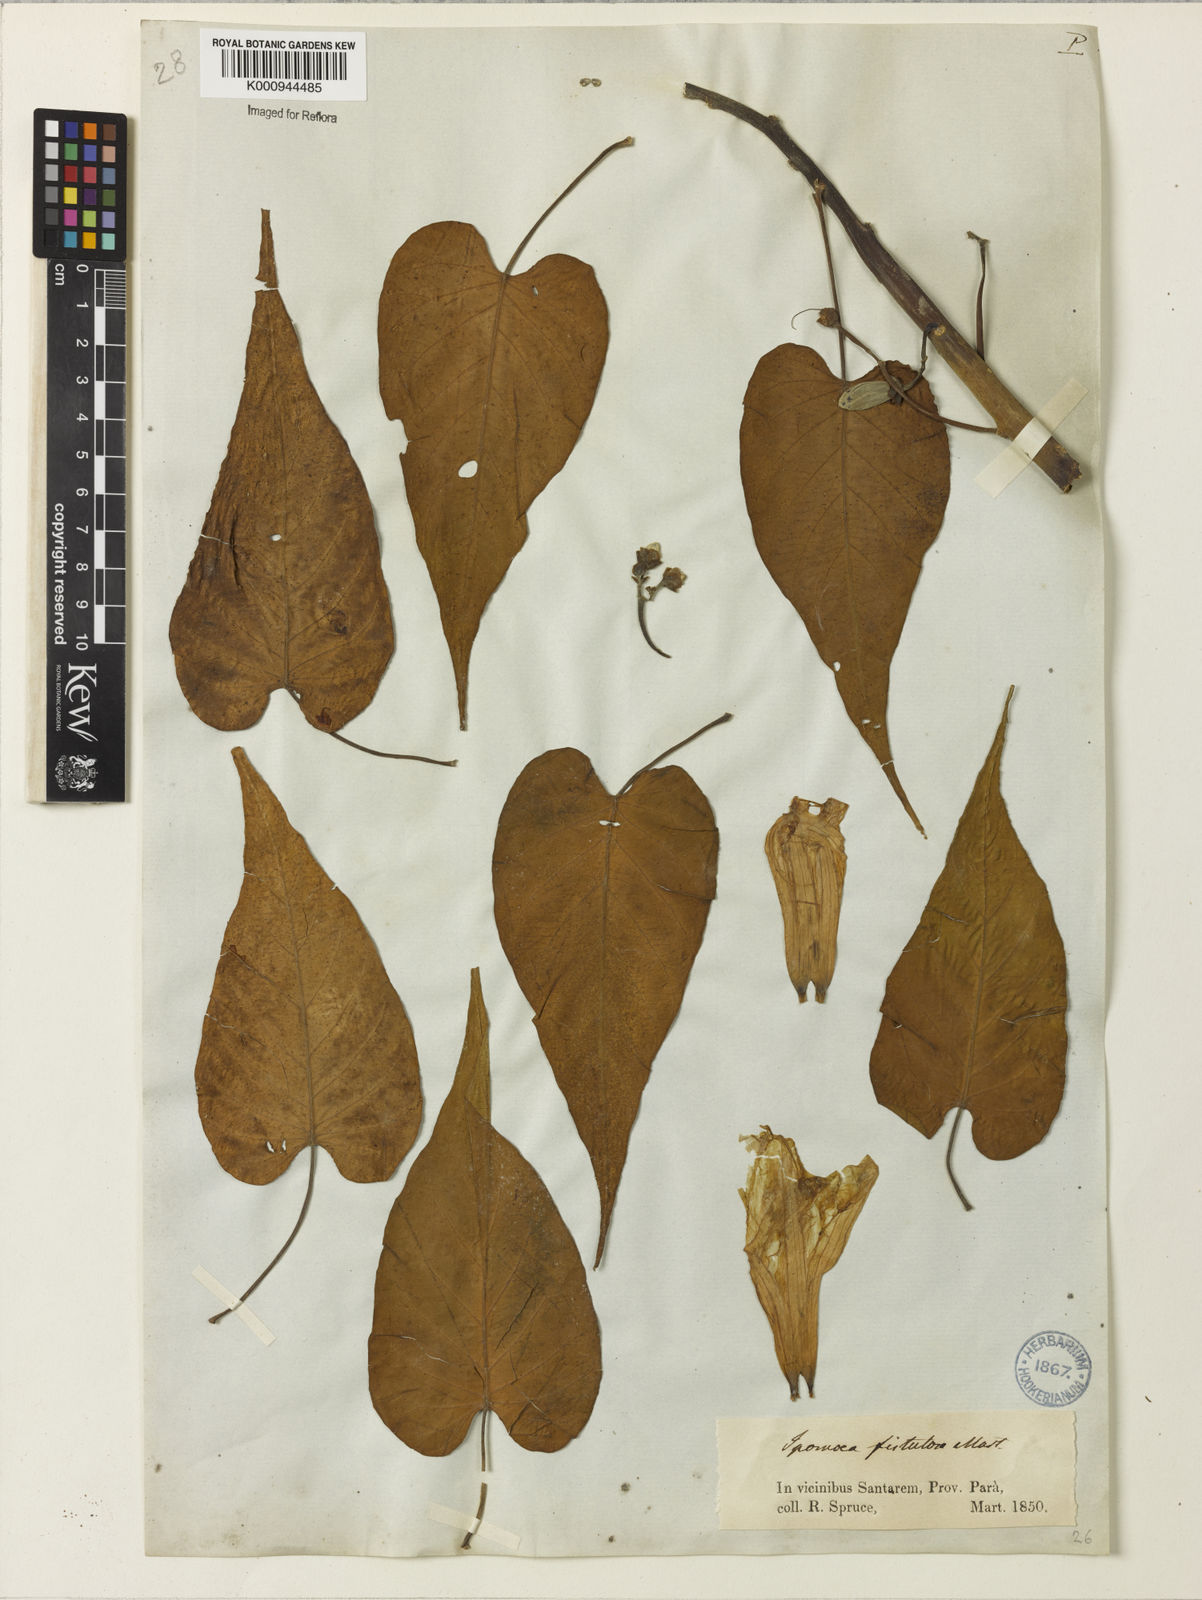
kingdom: Plantae
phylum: Tracheophyta
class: Magnoliopsida
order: Solanales
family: Convolvulaceae
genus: Ipomoea
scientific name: Ipomoea
